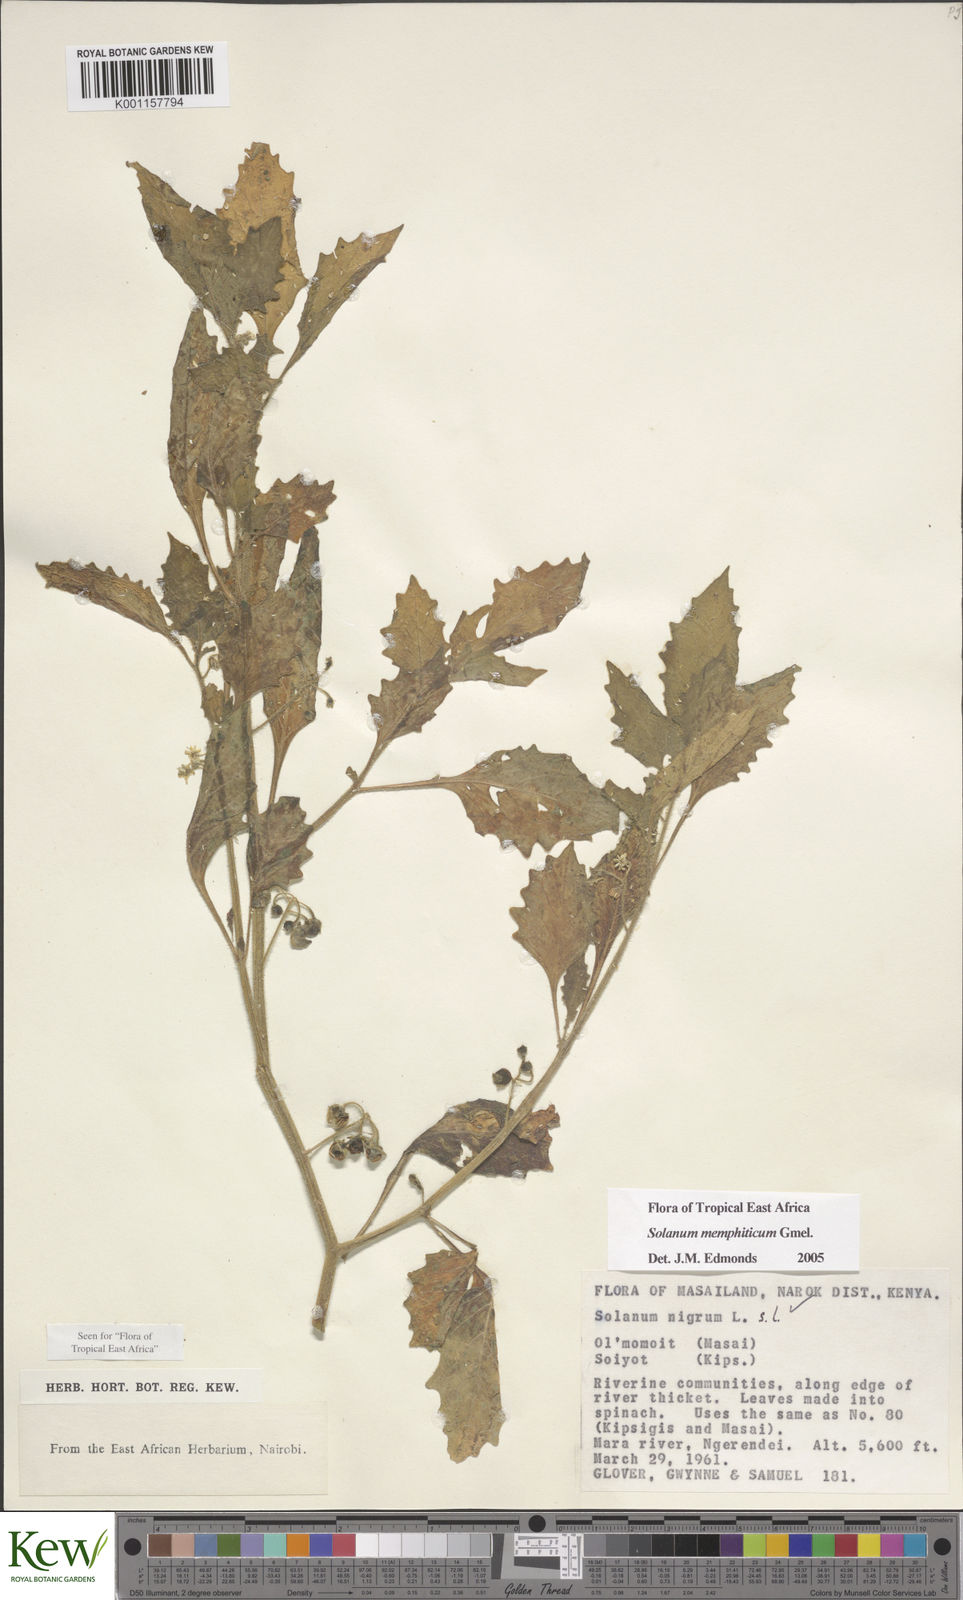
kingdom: Plantae
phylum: Tracheophyta
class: Magnoliopsida
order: Solanales
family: Solanaceae
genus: Solanum
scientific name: Solanum memphiticum
